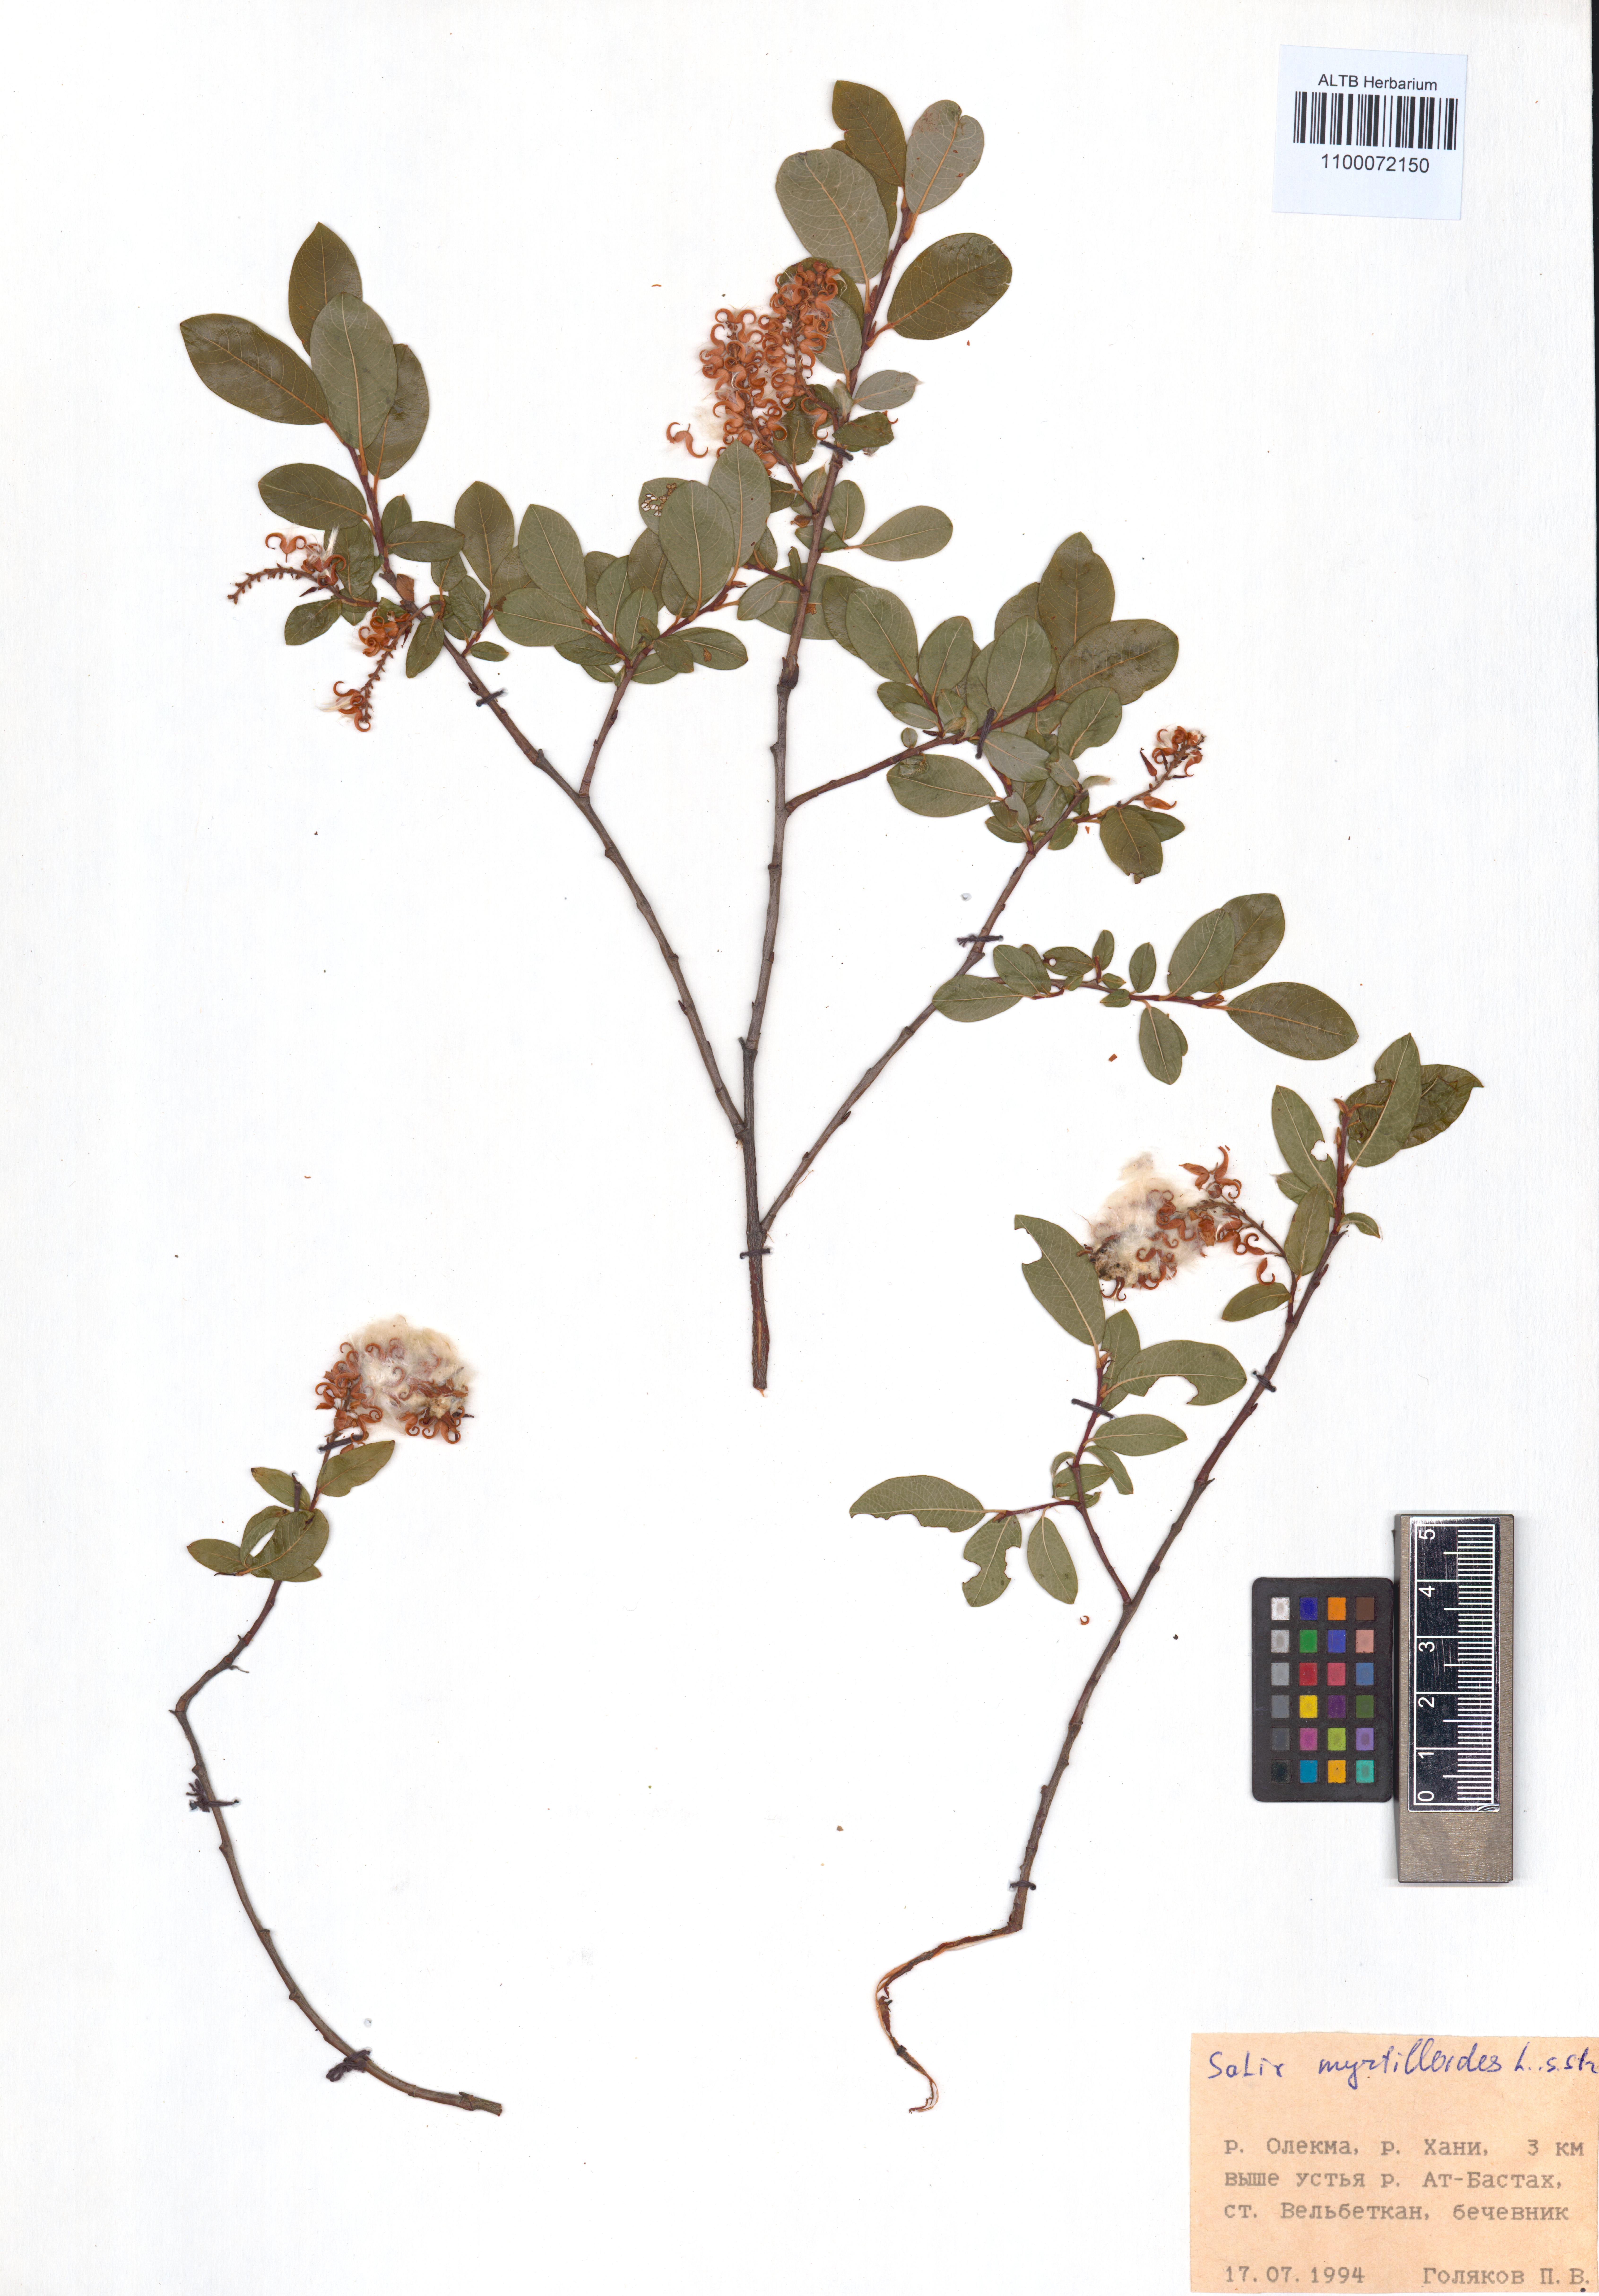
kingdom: Plantae
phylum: Tracheophyta
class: Magnoliopsida
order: Malpighiales
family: Salicaceae
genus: Salix
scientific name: Salix myrtilloides
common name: Myrtle-leaved willow
